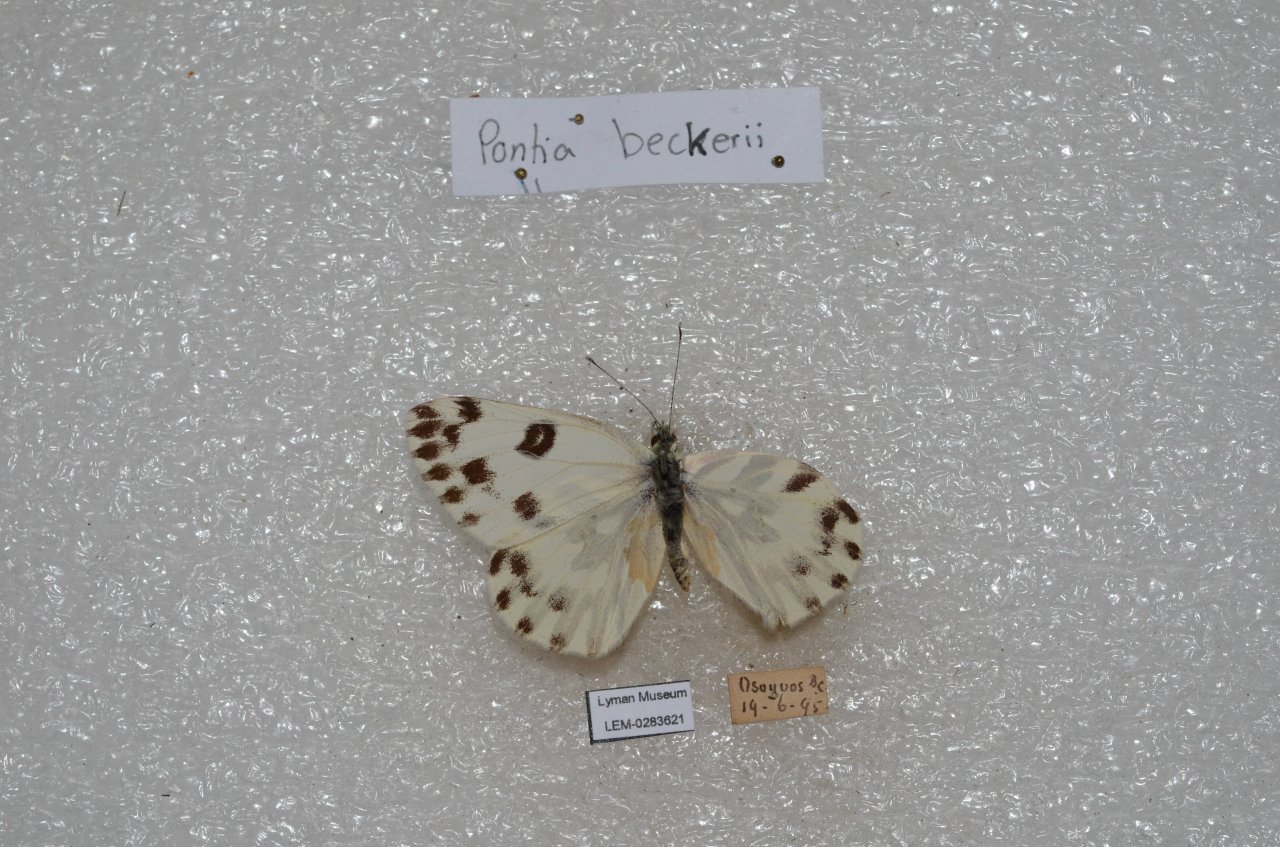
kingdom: Animalia
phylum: Arthropoda
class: Insecta
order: Lepidoptera
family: Pieridae
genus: Pontia
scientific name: Pontia beckerii
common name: Becker's White
